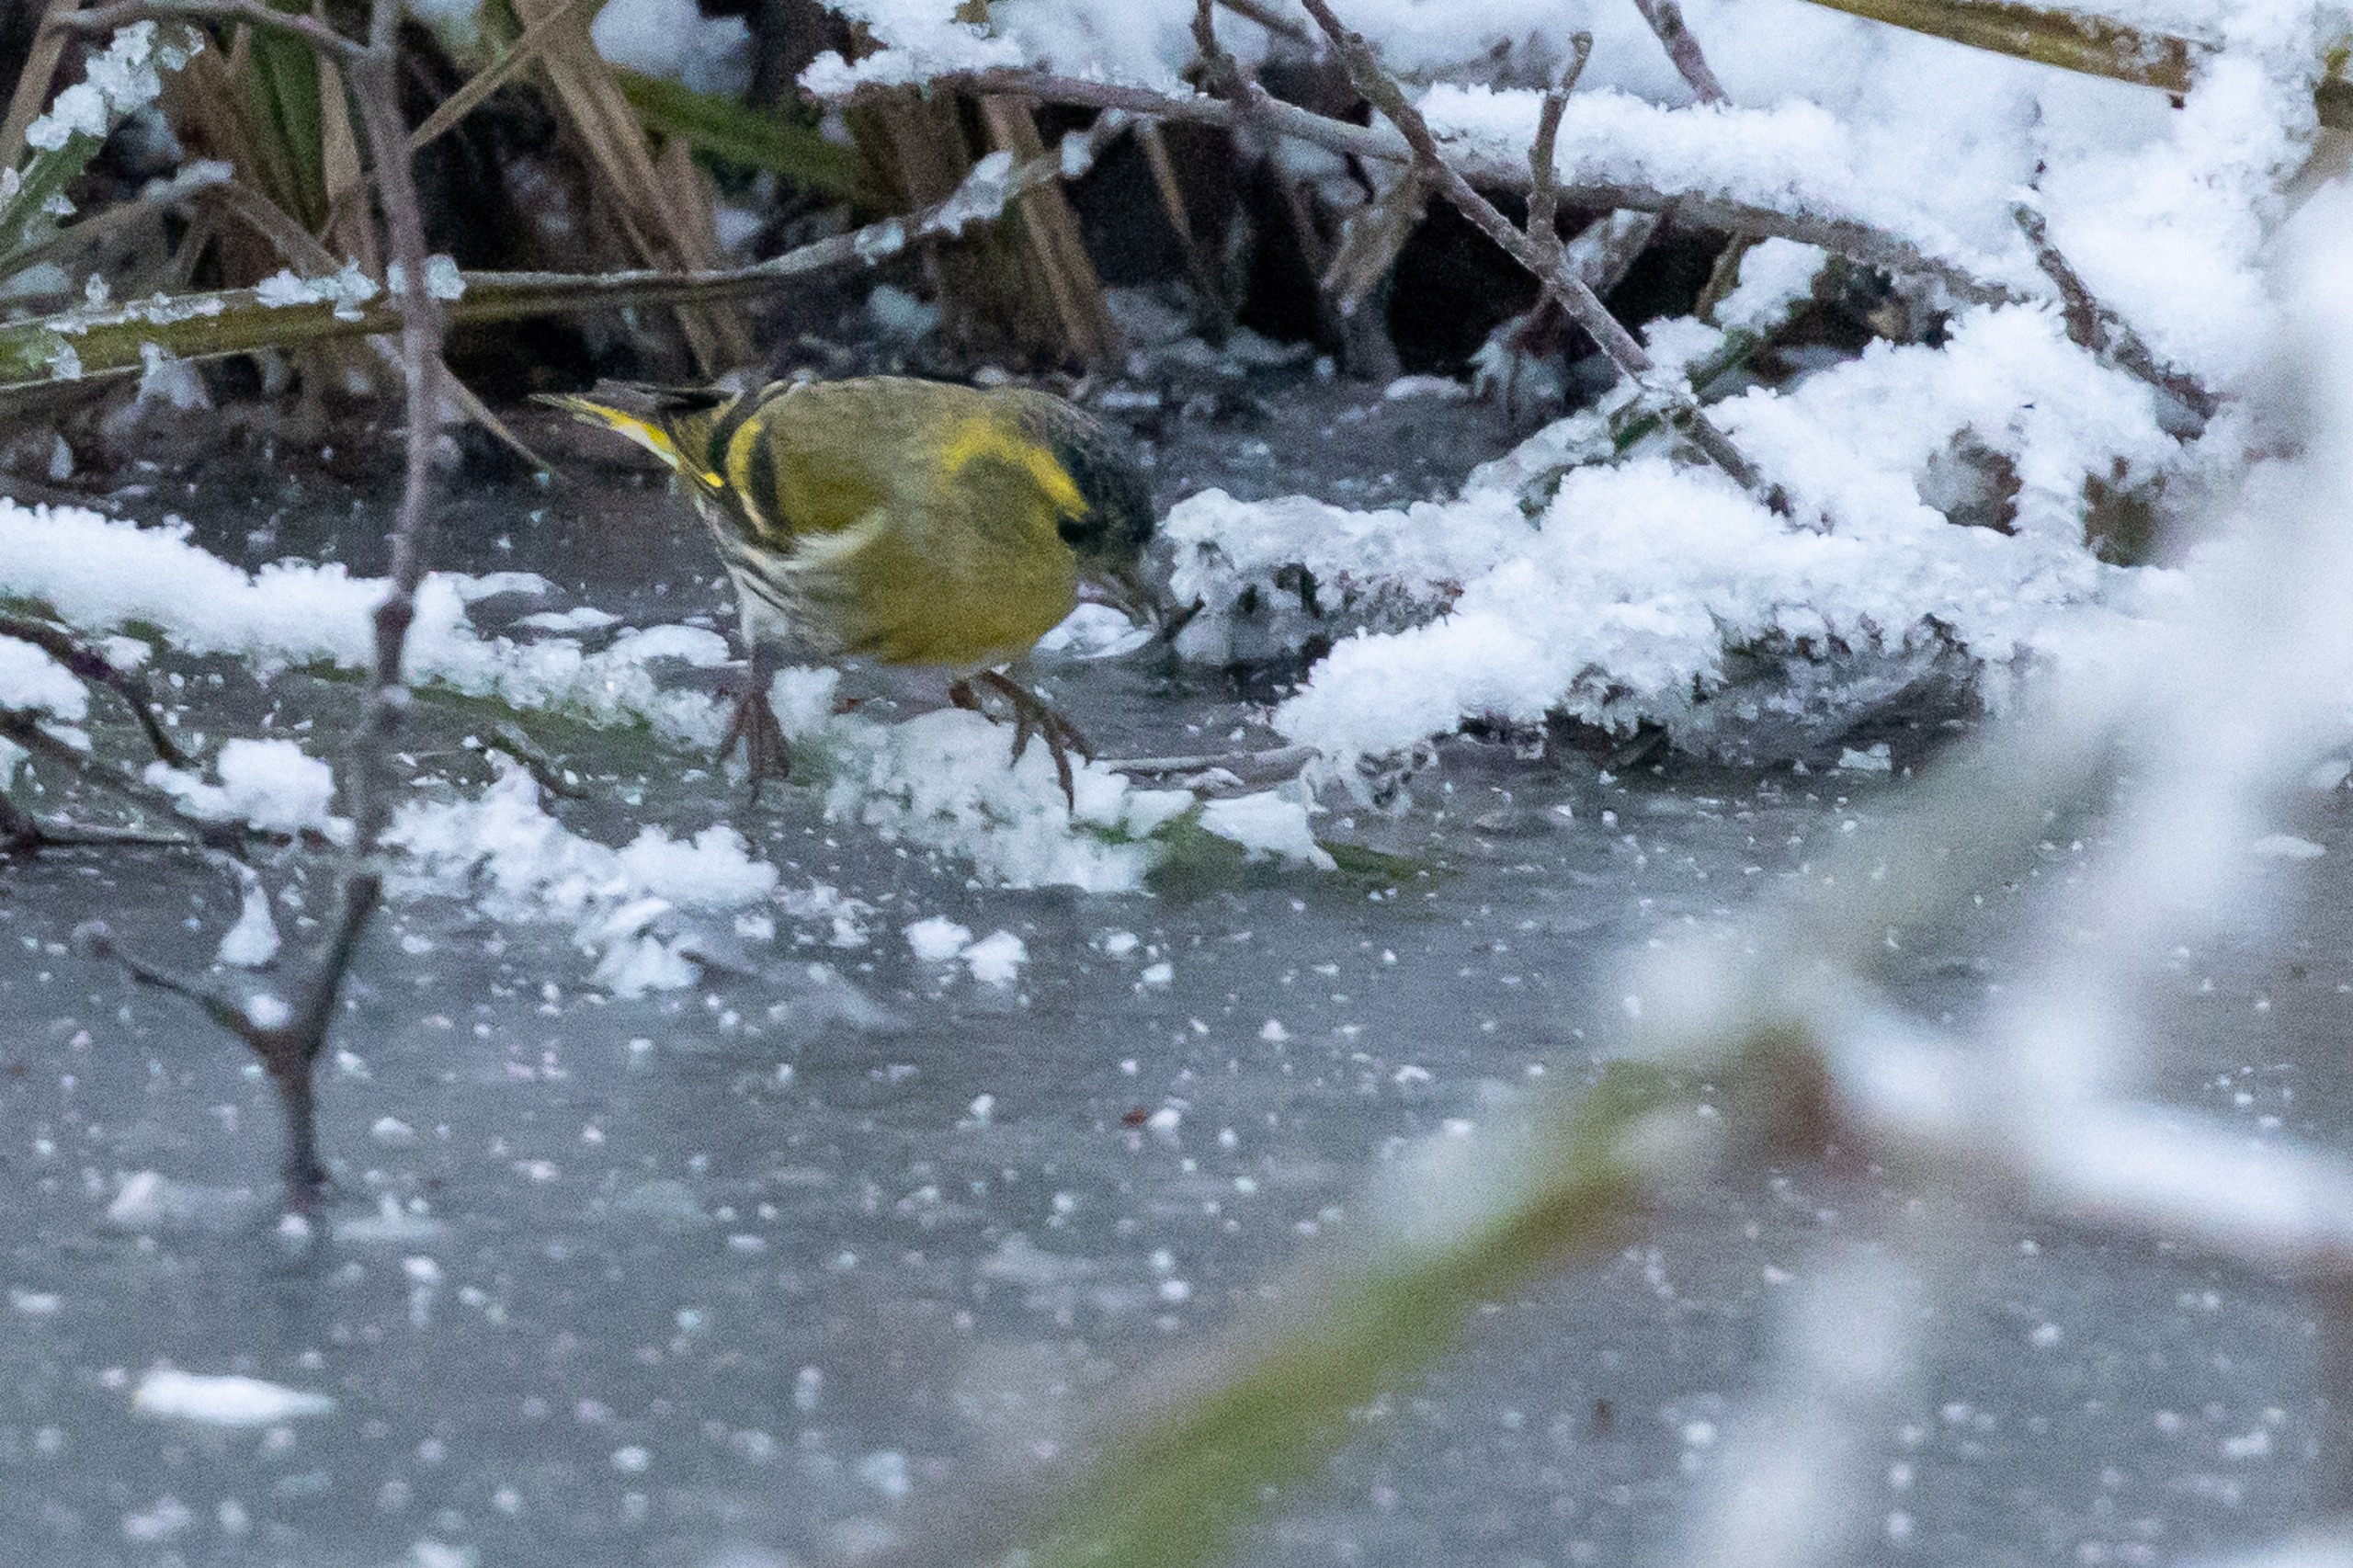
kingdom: Animalia
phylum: Chordata
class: Aves
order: Passeriformes
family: Fringillidae
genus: Spinus
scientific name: Spinus spinus
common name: Grønsisken
